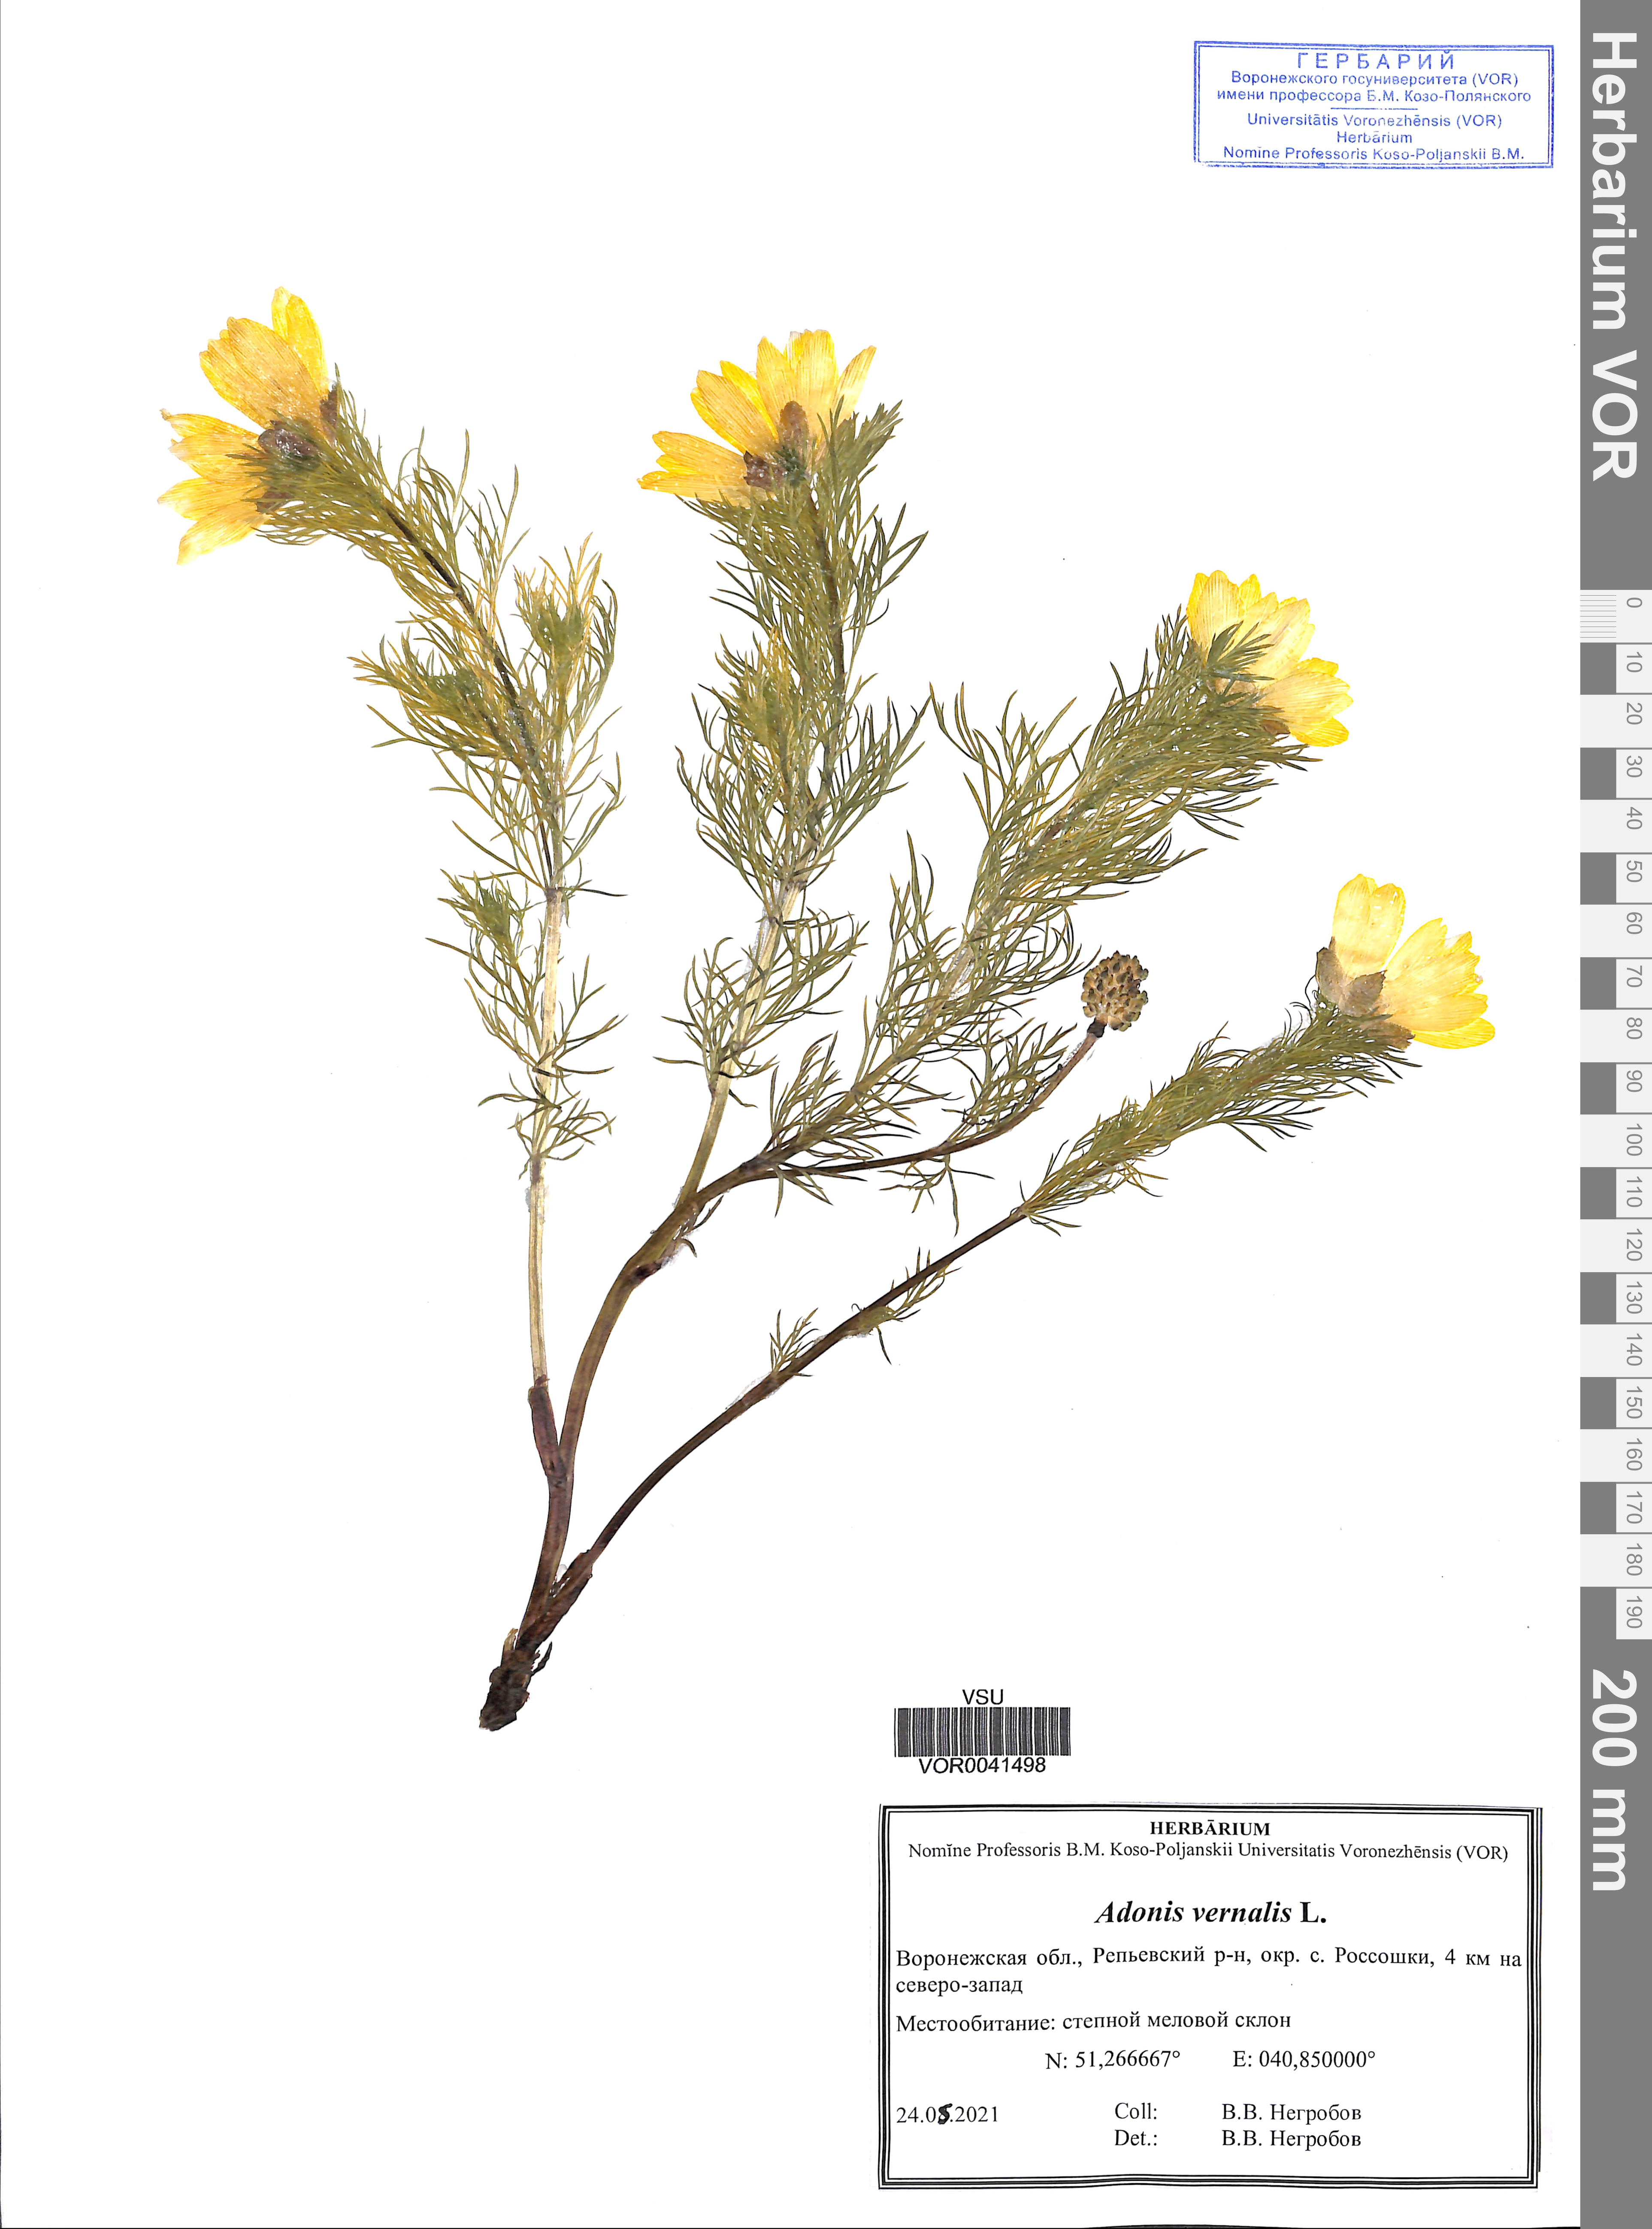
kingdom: Plantae
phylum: Tracheophyta
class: Magnoliopsida
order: Ranunculales
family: Ranunculaceae
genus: Adonis
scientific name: Adonis vernalis
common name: Yellow pheasants-eye
